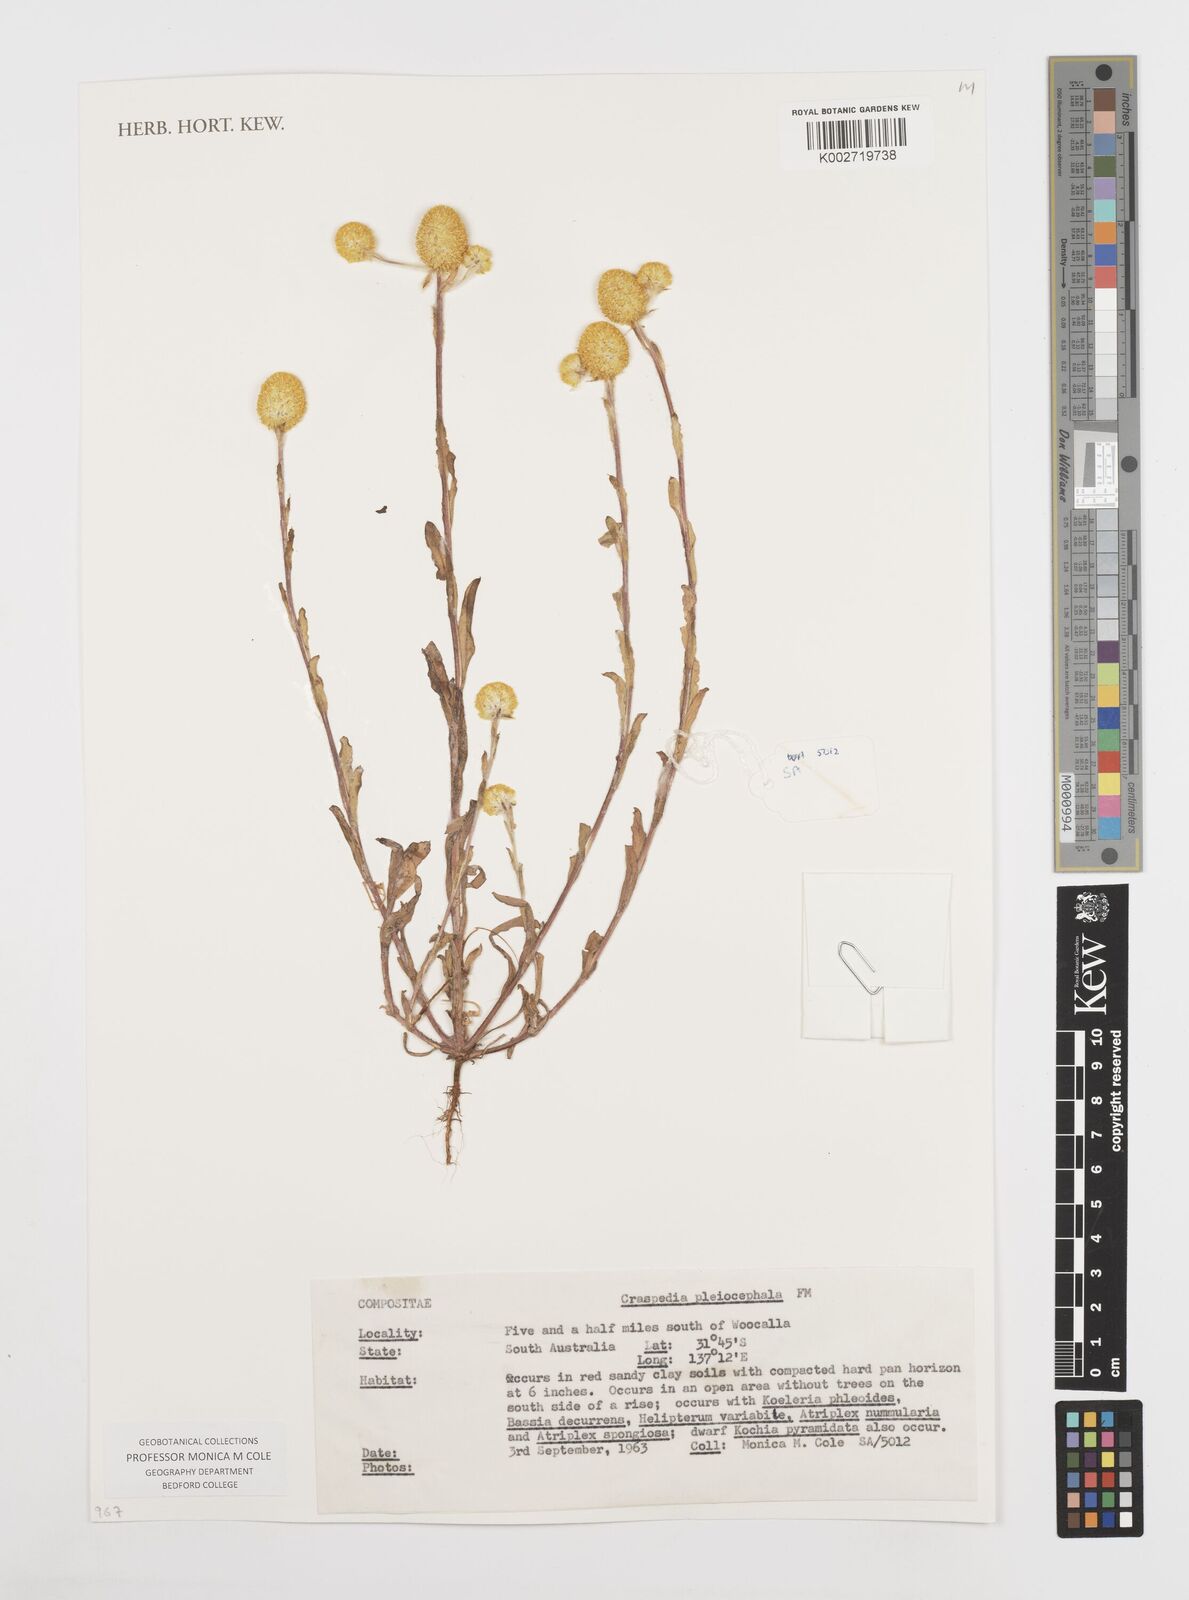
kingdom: Plantae
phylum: Tracheophyta
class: Magnoliopsida
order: Asterales
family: Asteraceae
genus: Pycnosorus
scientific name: Pycnosorus pleiocephalus
